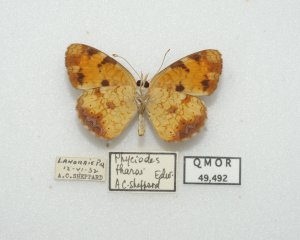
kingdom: Animalia
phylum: Arthropoda
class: Insecta
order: Lepidoptera
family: Nymphalidae
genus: Phyciodes
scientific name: Phyciodes tharos
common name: Northern Crescent
